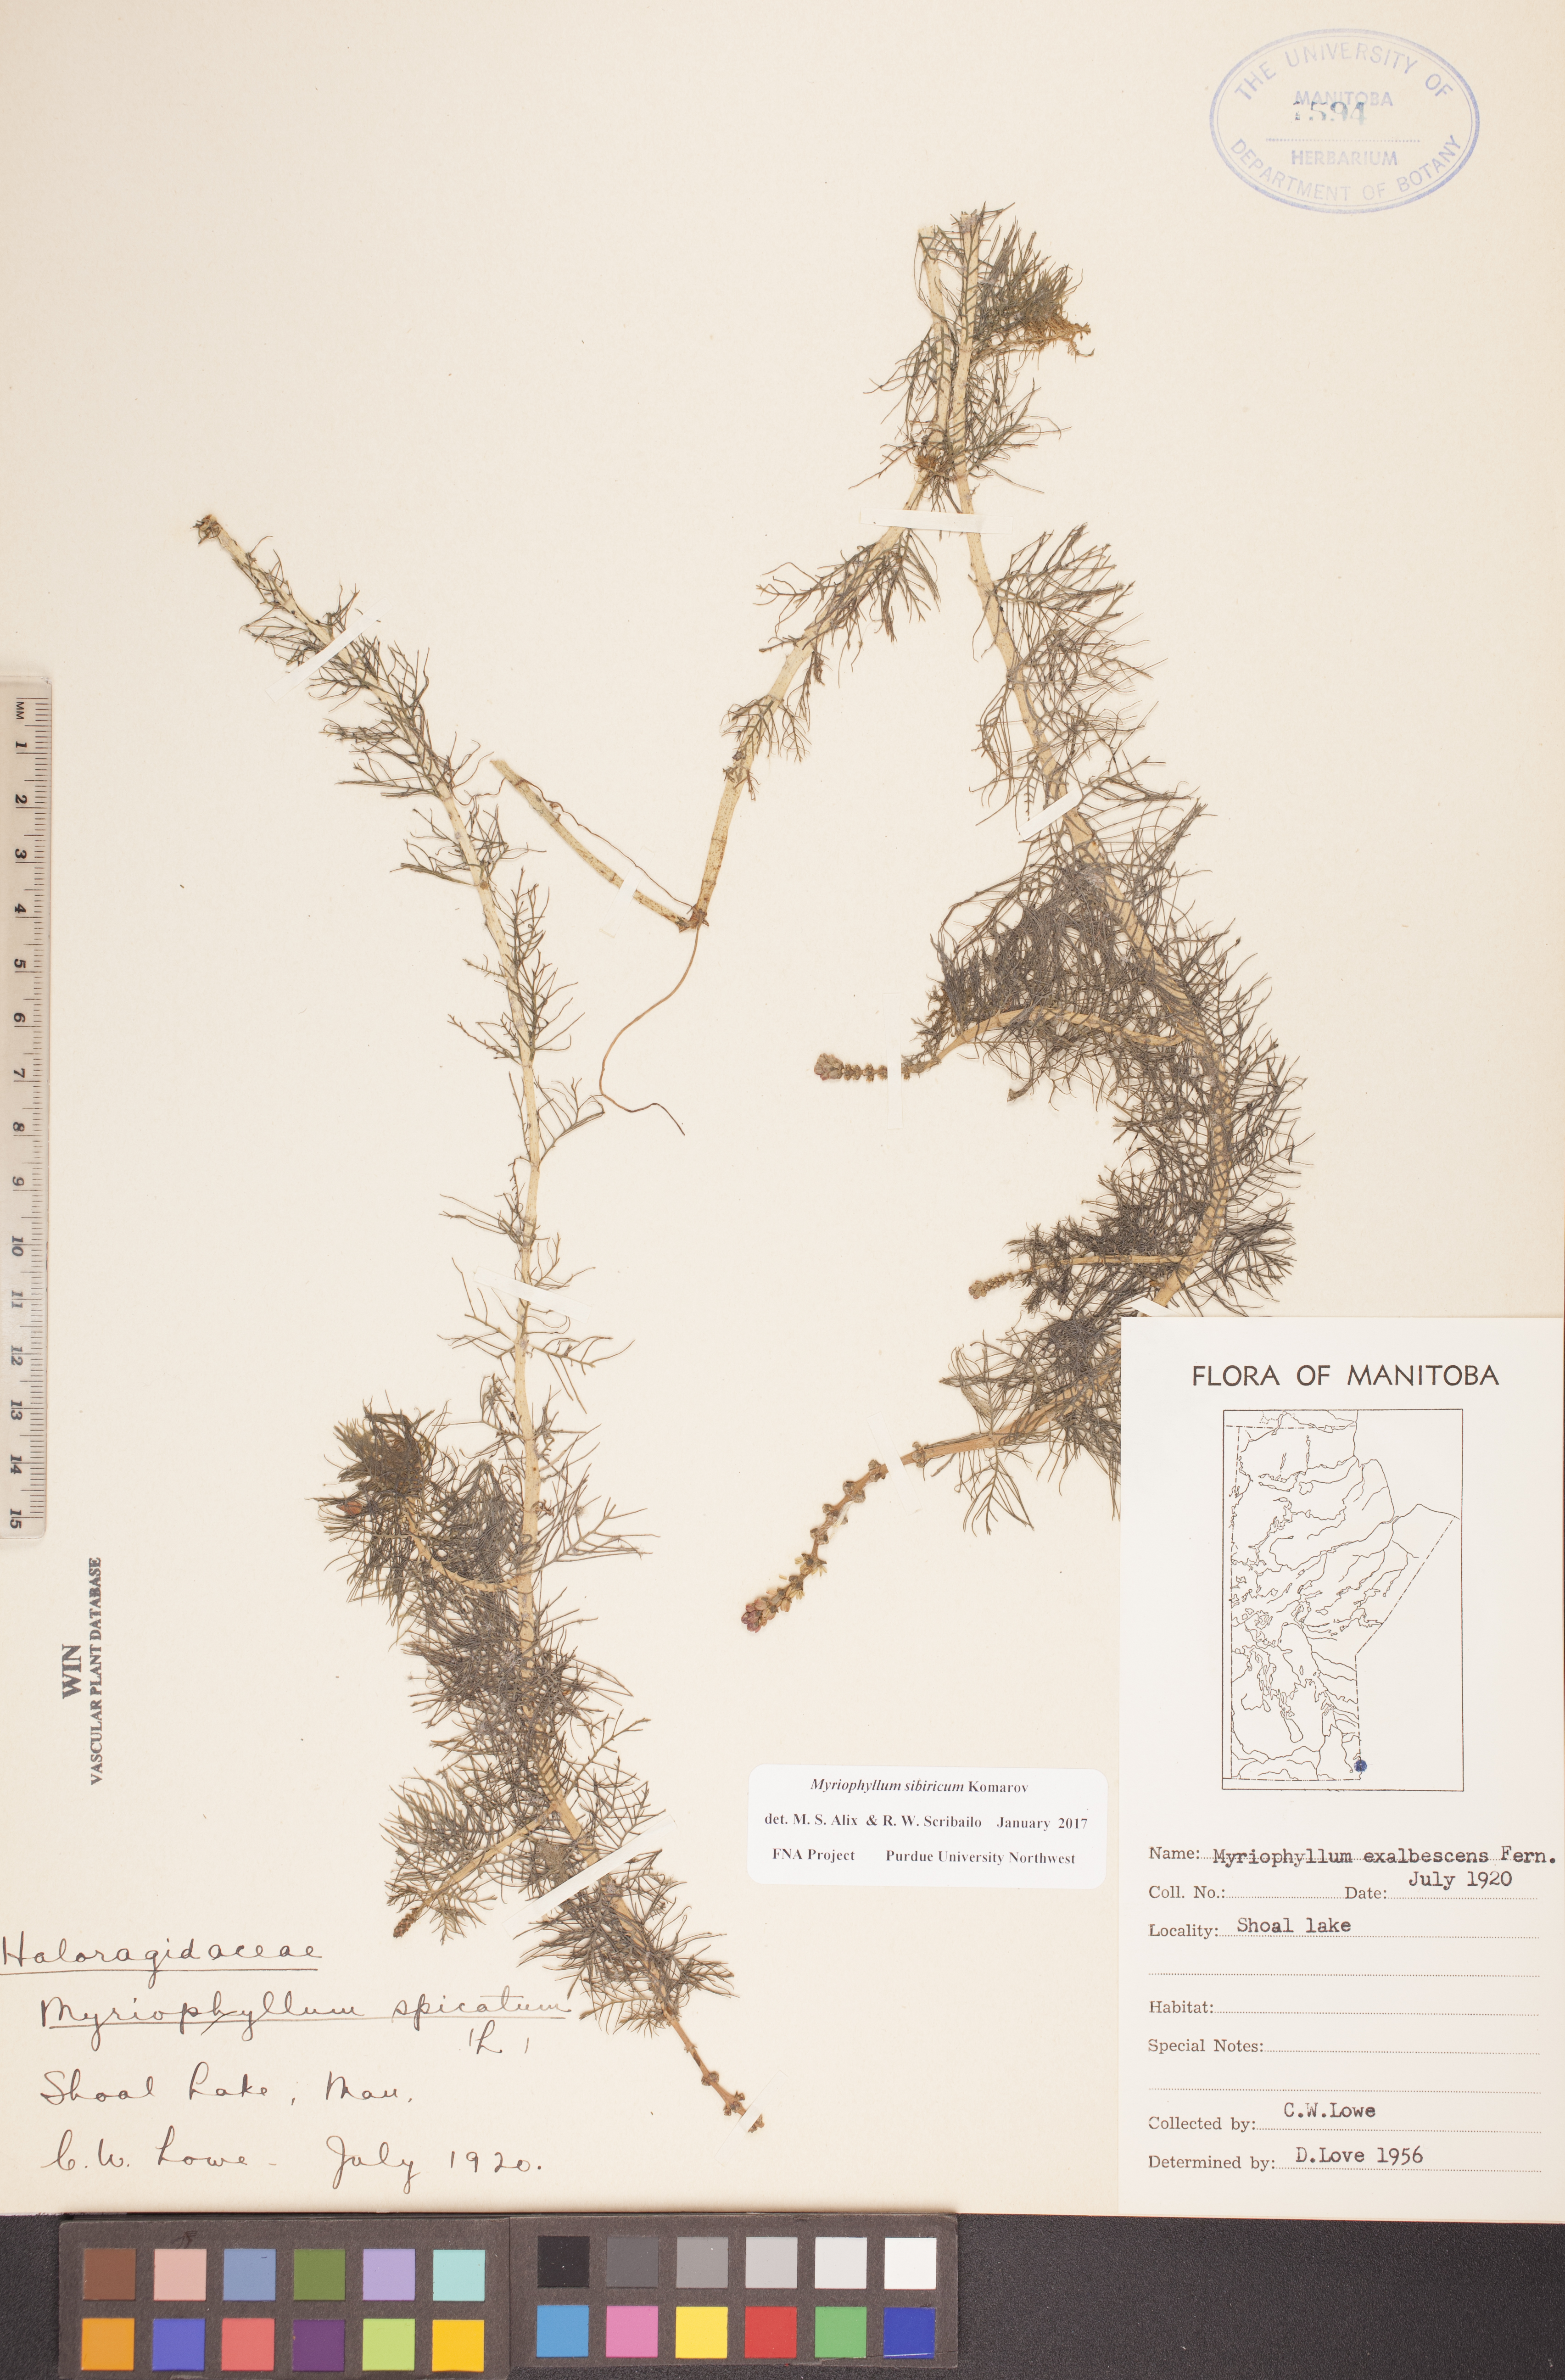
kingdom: Plantae
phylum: Tracheophyta
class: Magnoliopsida
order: Saxifragales
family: Haloragaceae
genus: Myriophyllum
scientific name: Myriophyllum sibiricum
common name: Siberian water-milfoil
